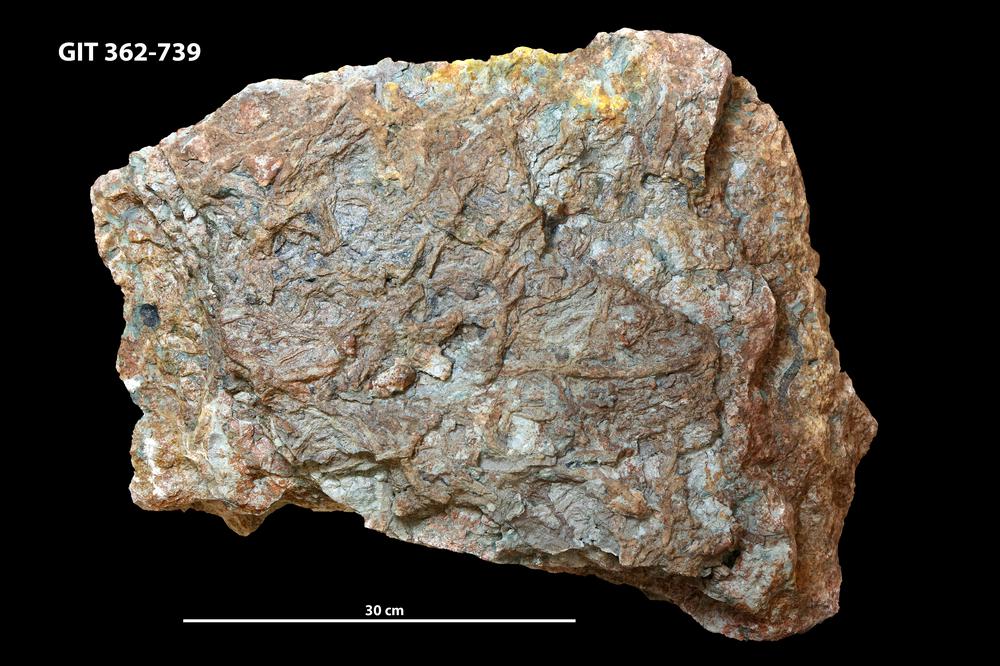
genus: Teichichnus
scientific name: Teichichnus rectus
